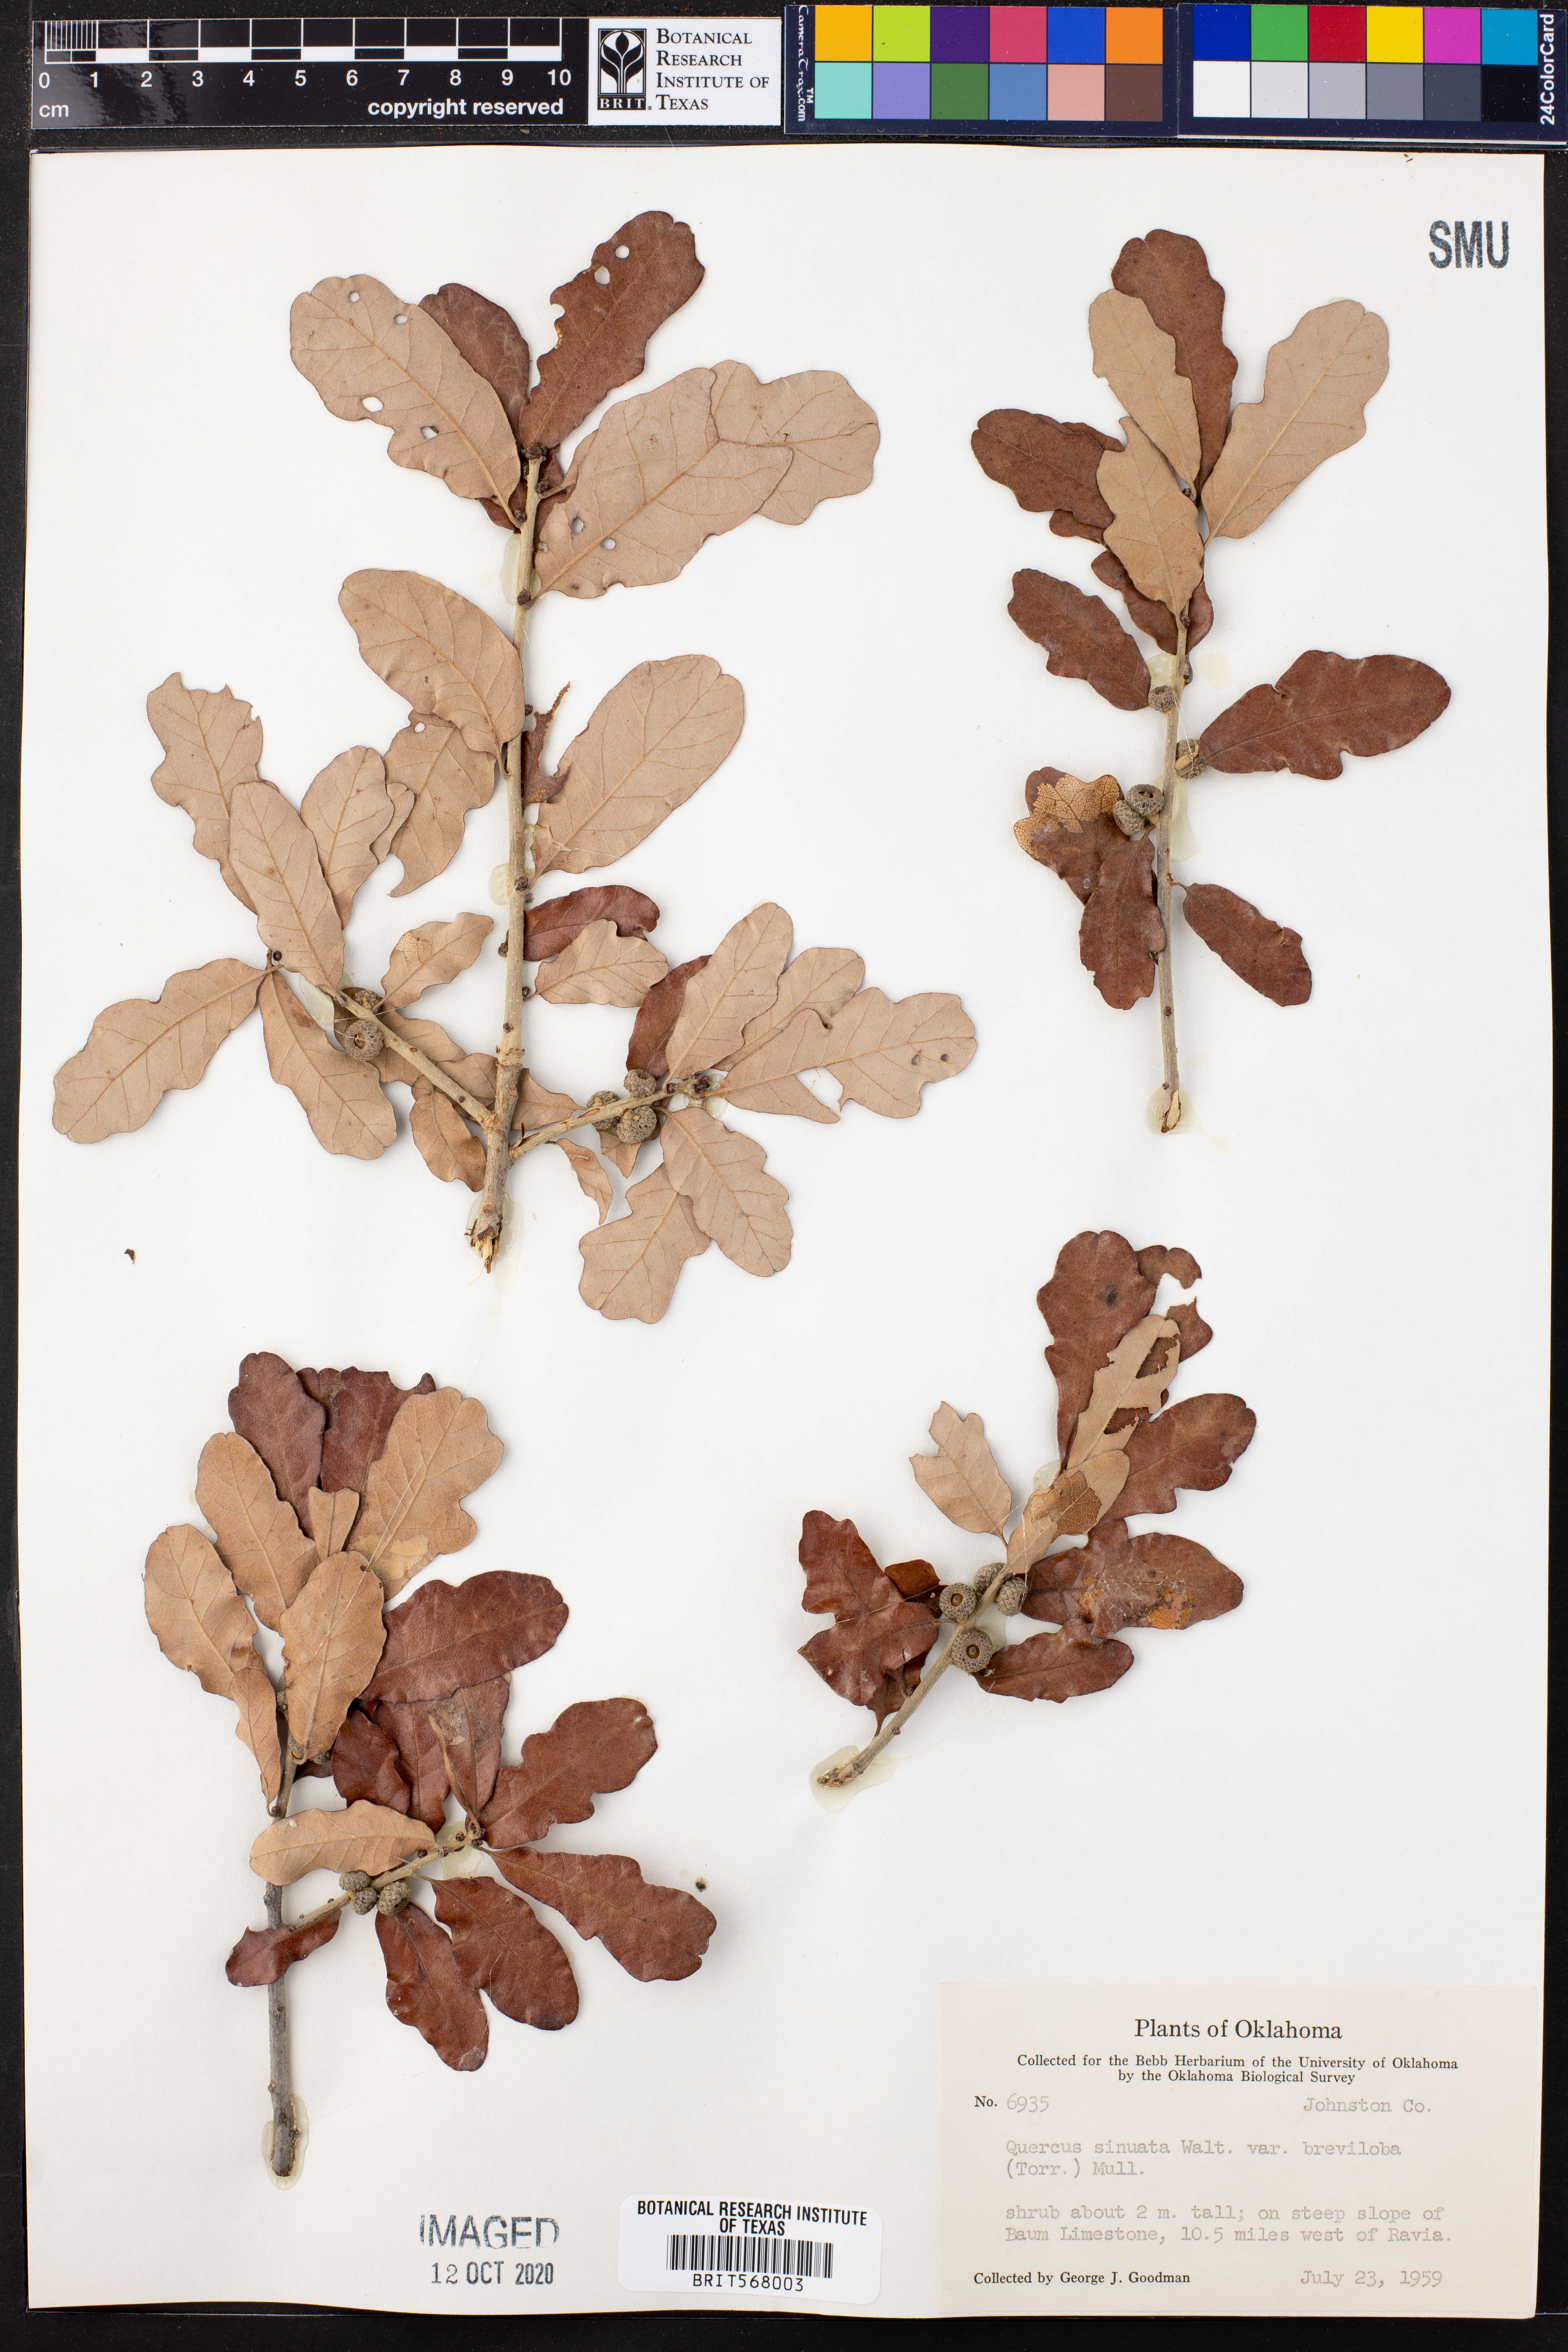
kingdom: Plantae
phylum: Tracheophyta
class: Magnoliopsida
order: Fagales
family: Fagaceae
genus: Quercus
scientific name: Quercus sinuata
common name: Durand oak
